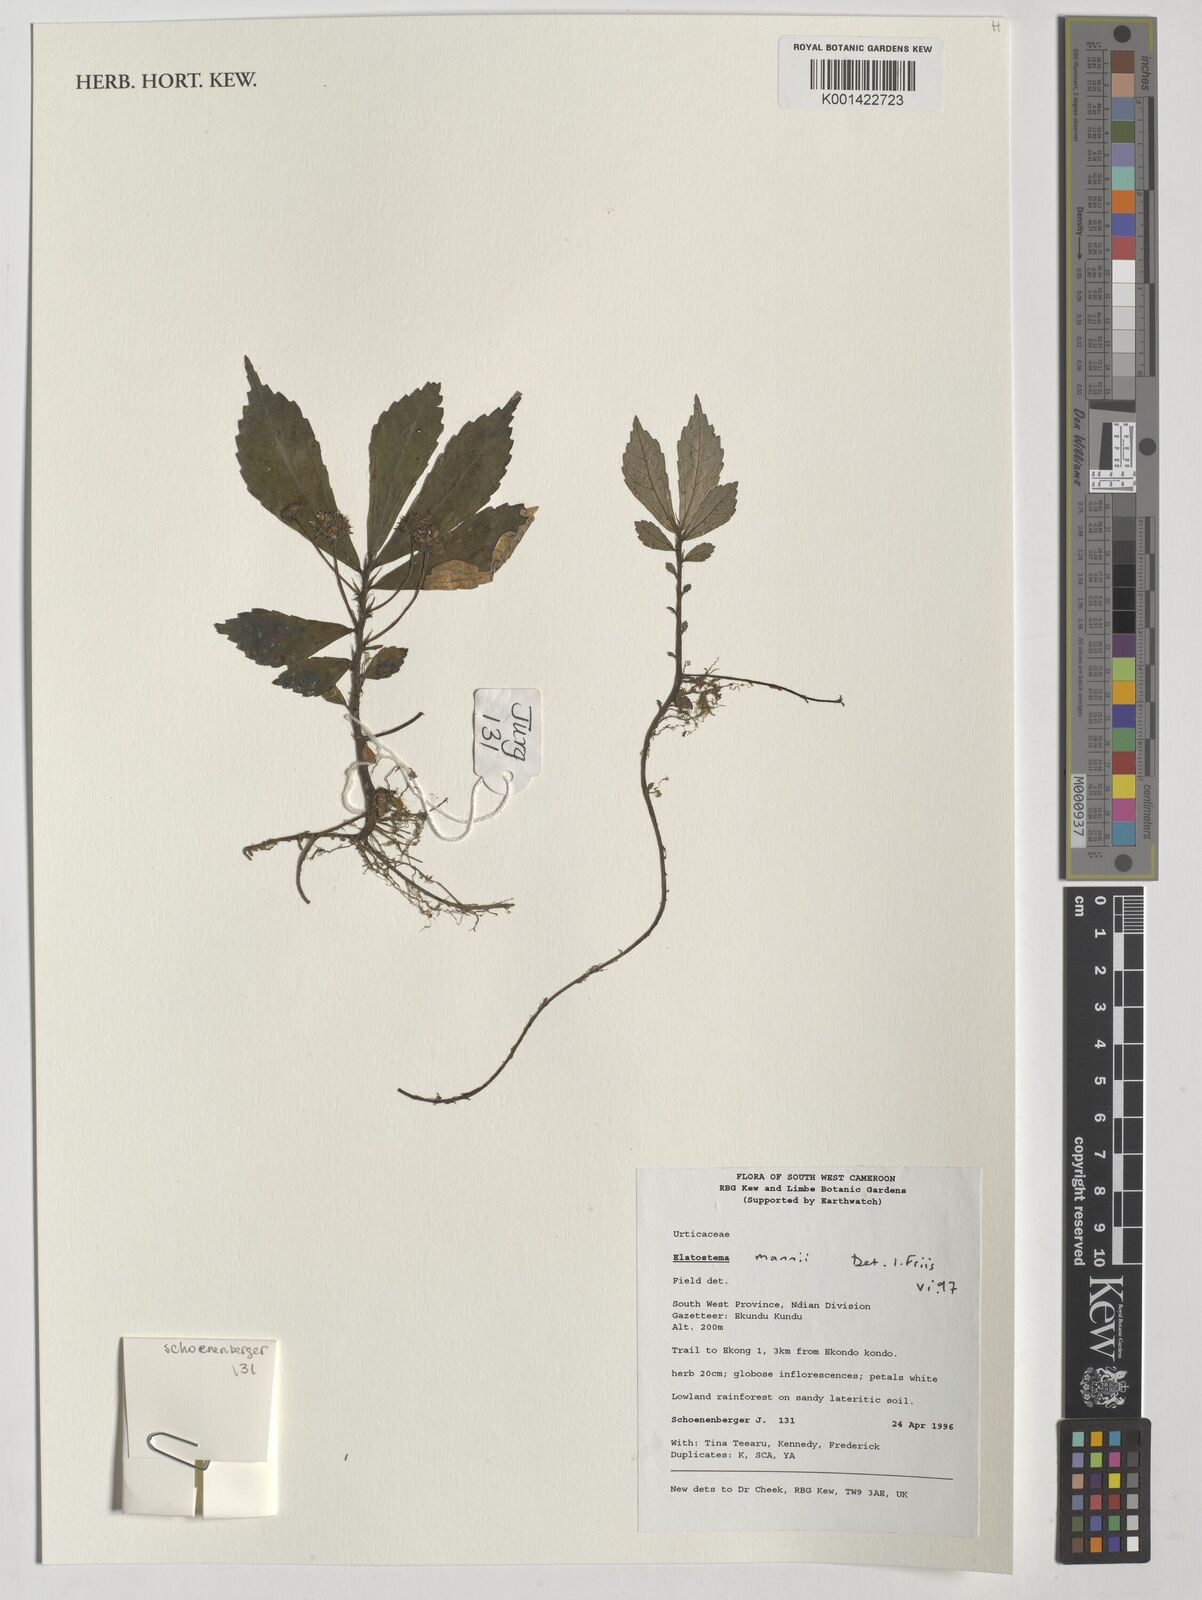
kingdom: Plantae
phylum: Tracheophyta
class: Magnoliopsida
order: Rosales
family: Urticaceae
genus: Elatostema
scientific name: Elatostema mannii
